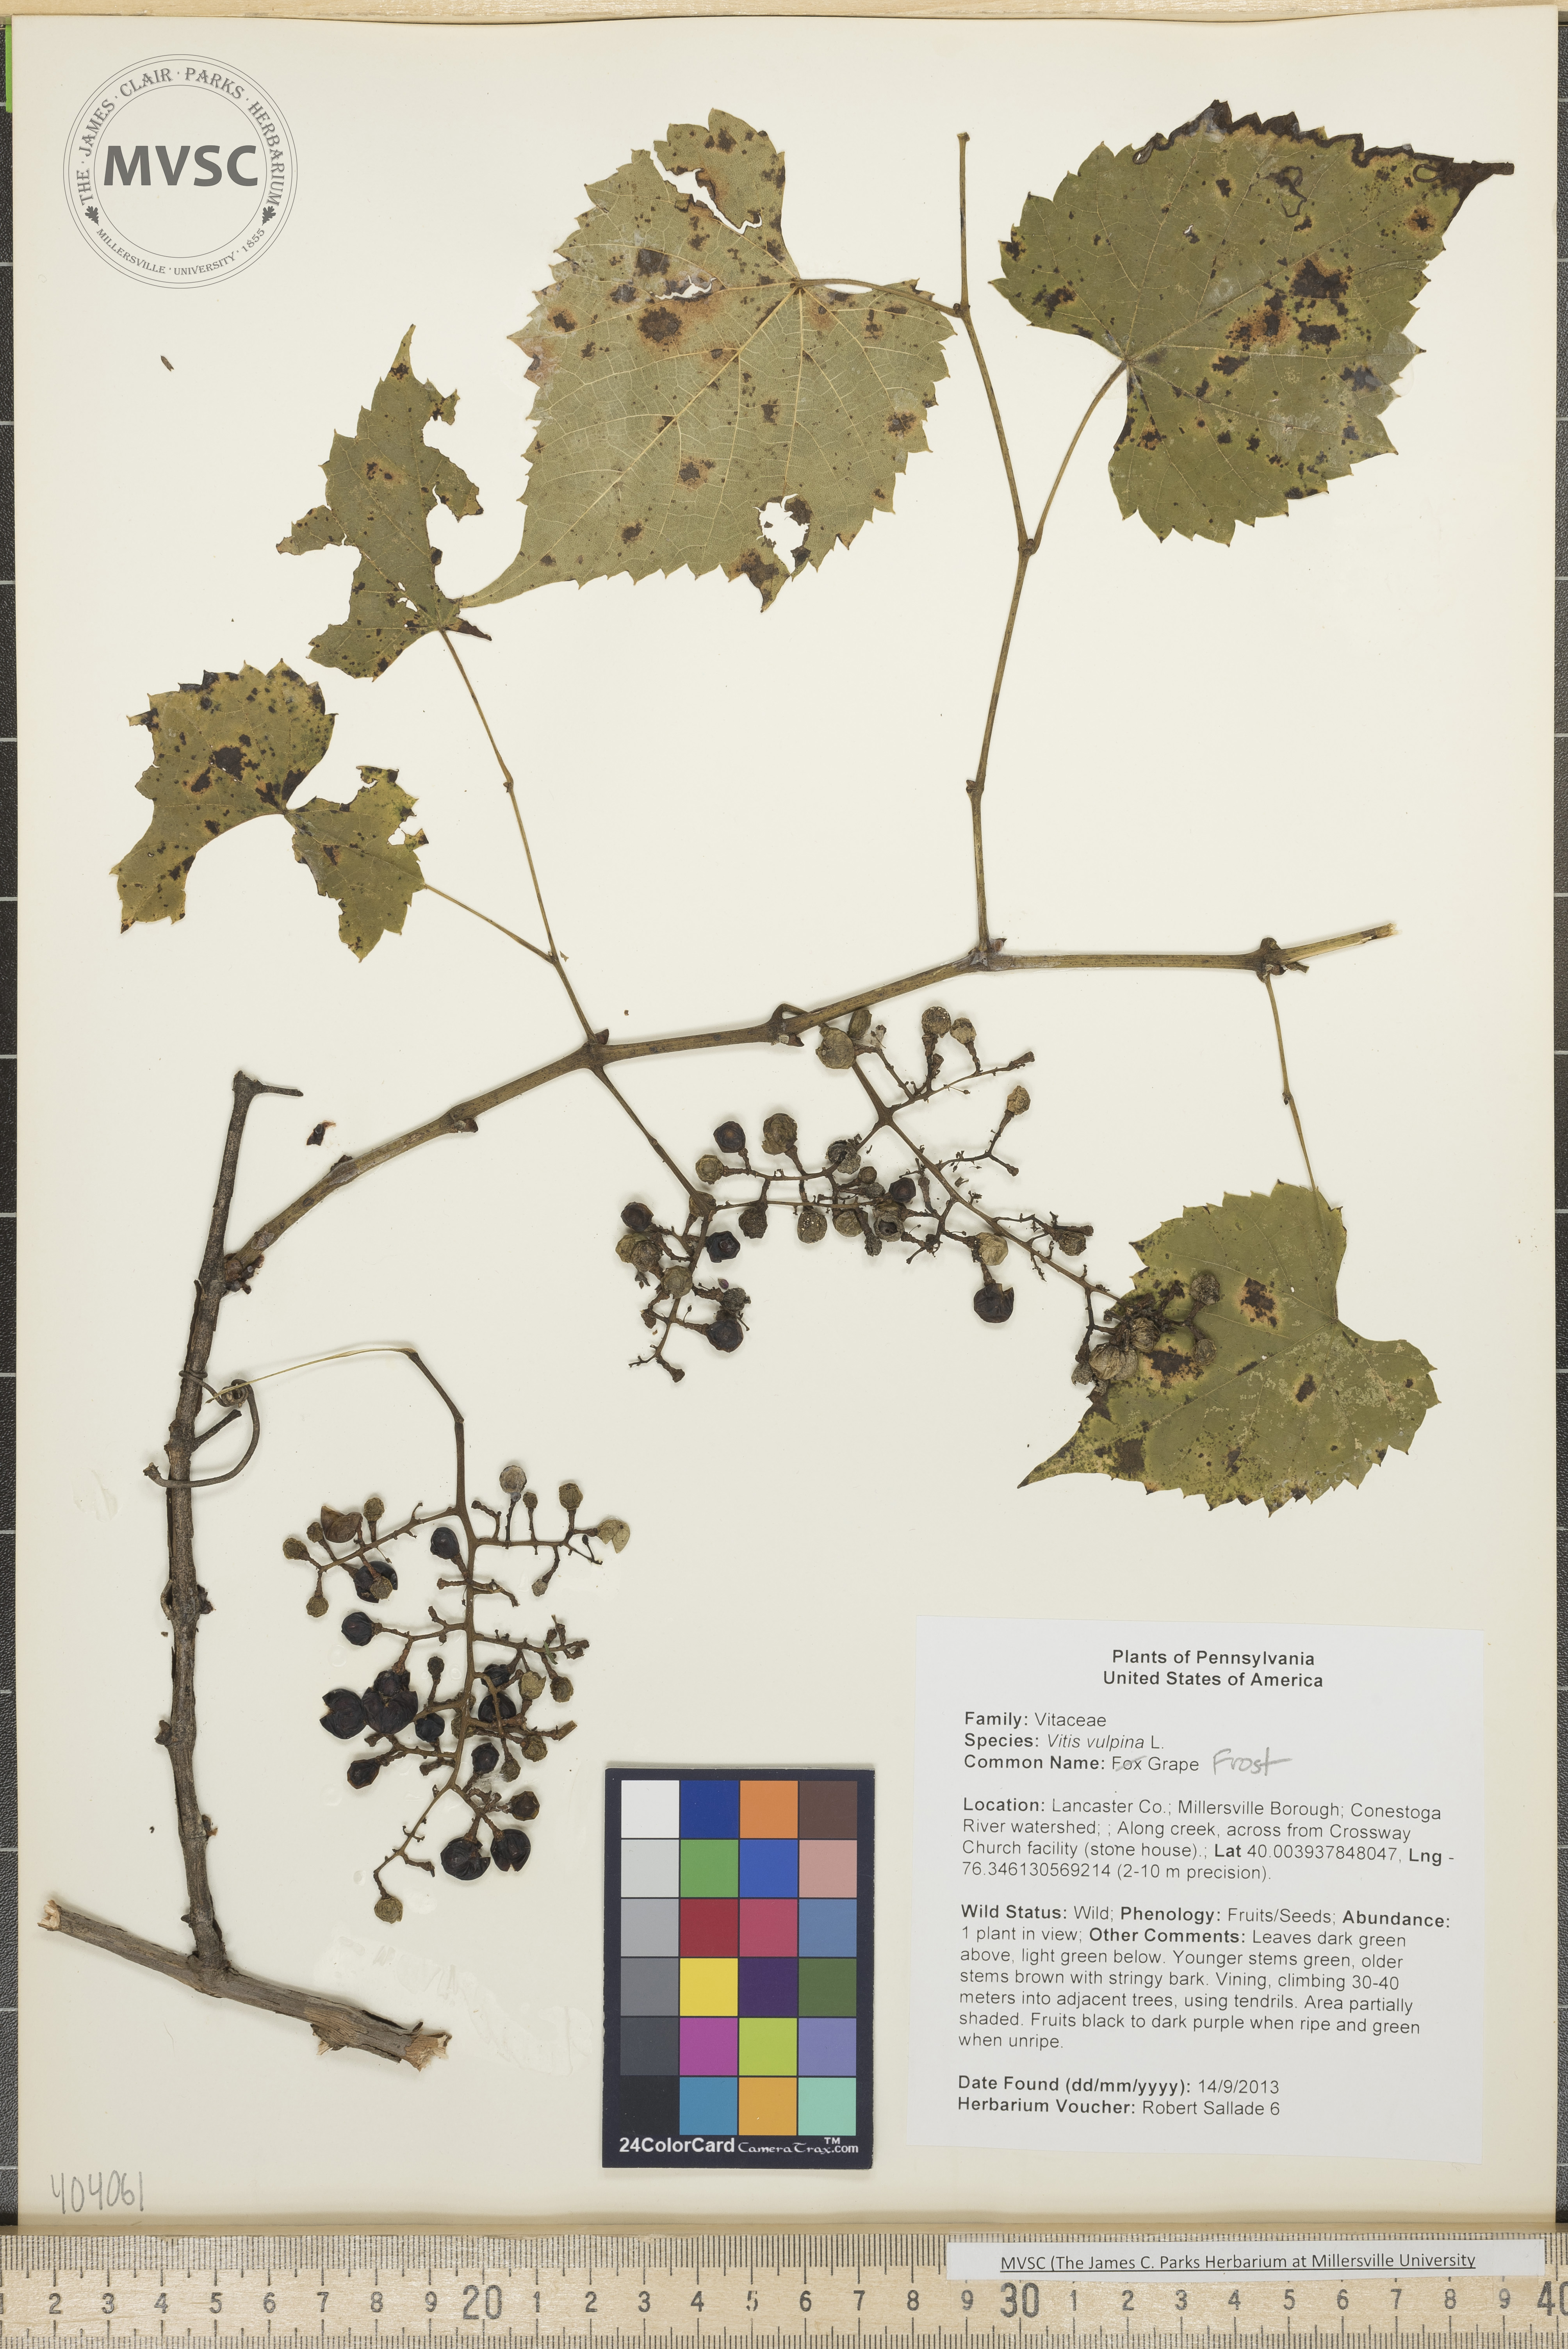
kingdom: Plantae
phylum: Tracheophyta
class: Magnoliopsida
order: Vitales
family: Vitaceae
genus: Vitis
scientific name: Vitis vulpina
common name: Fox Grape
